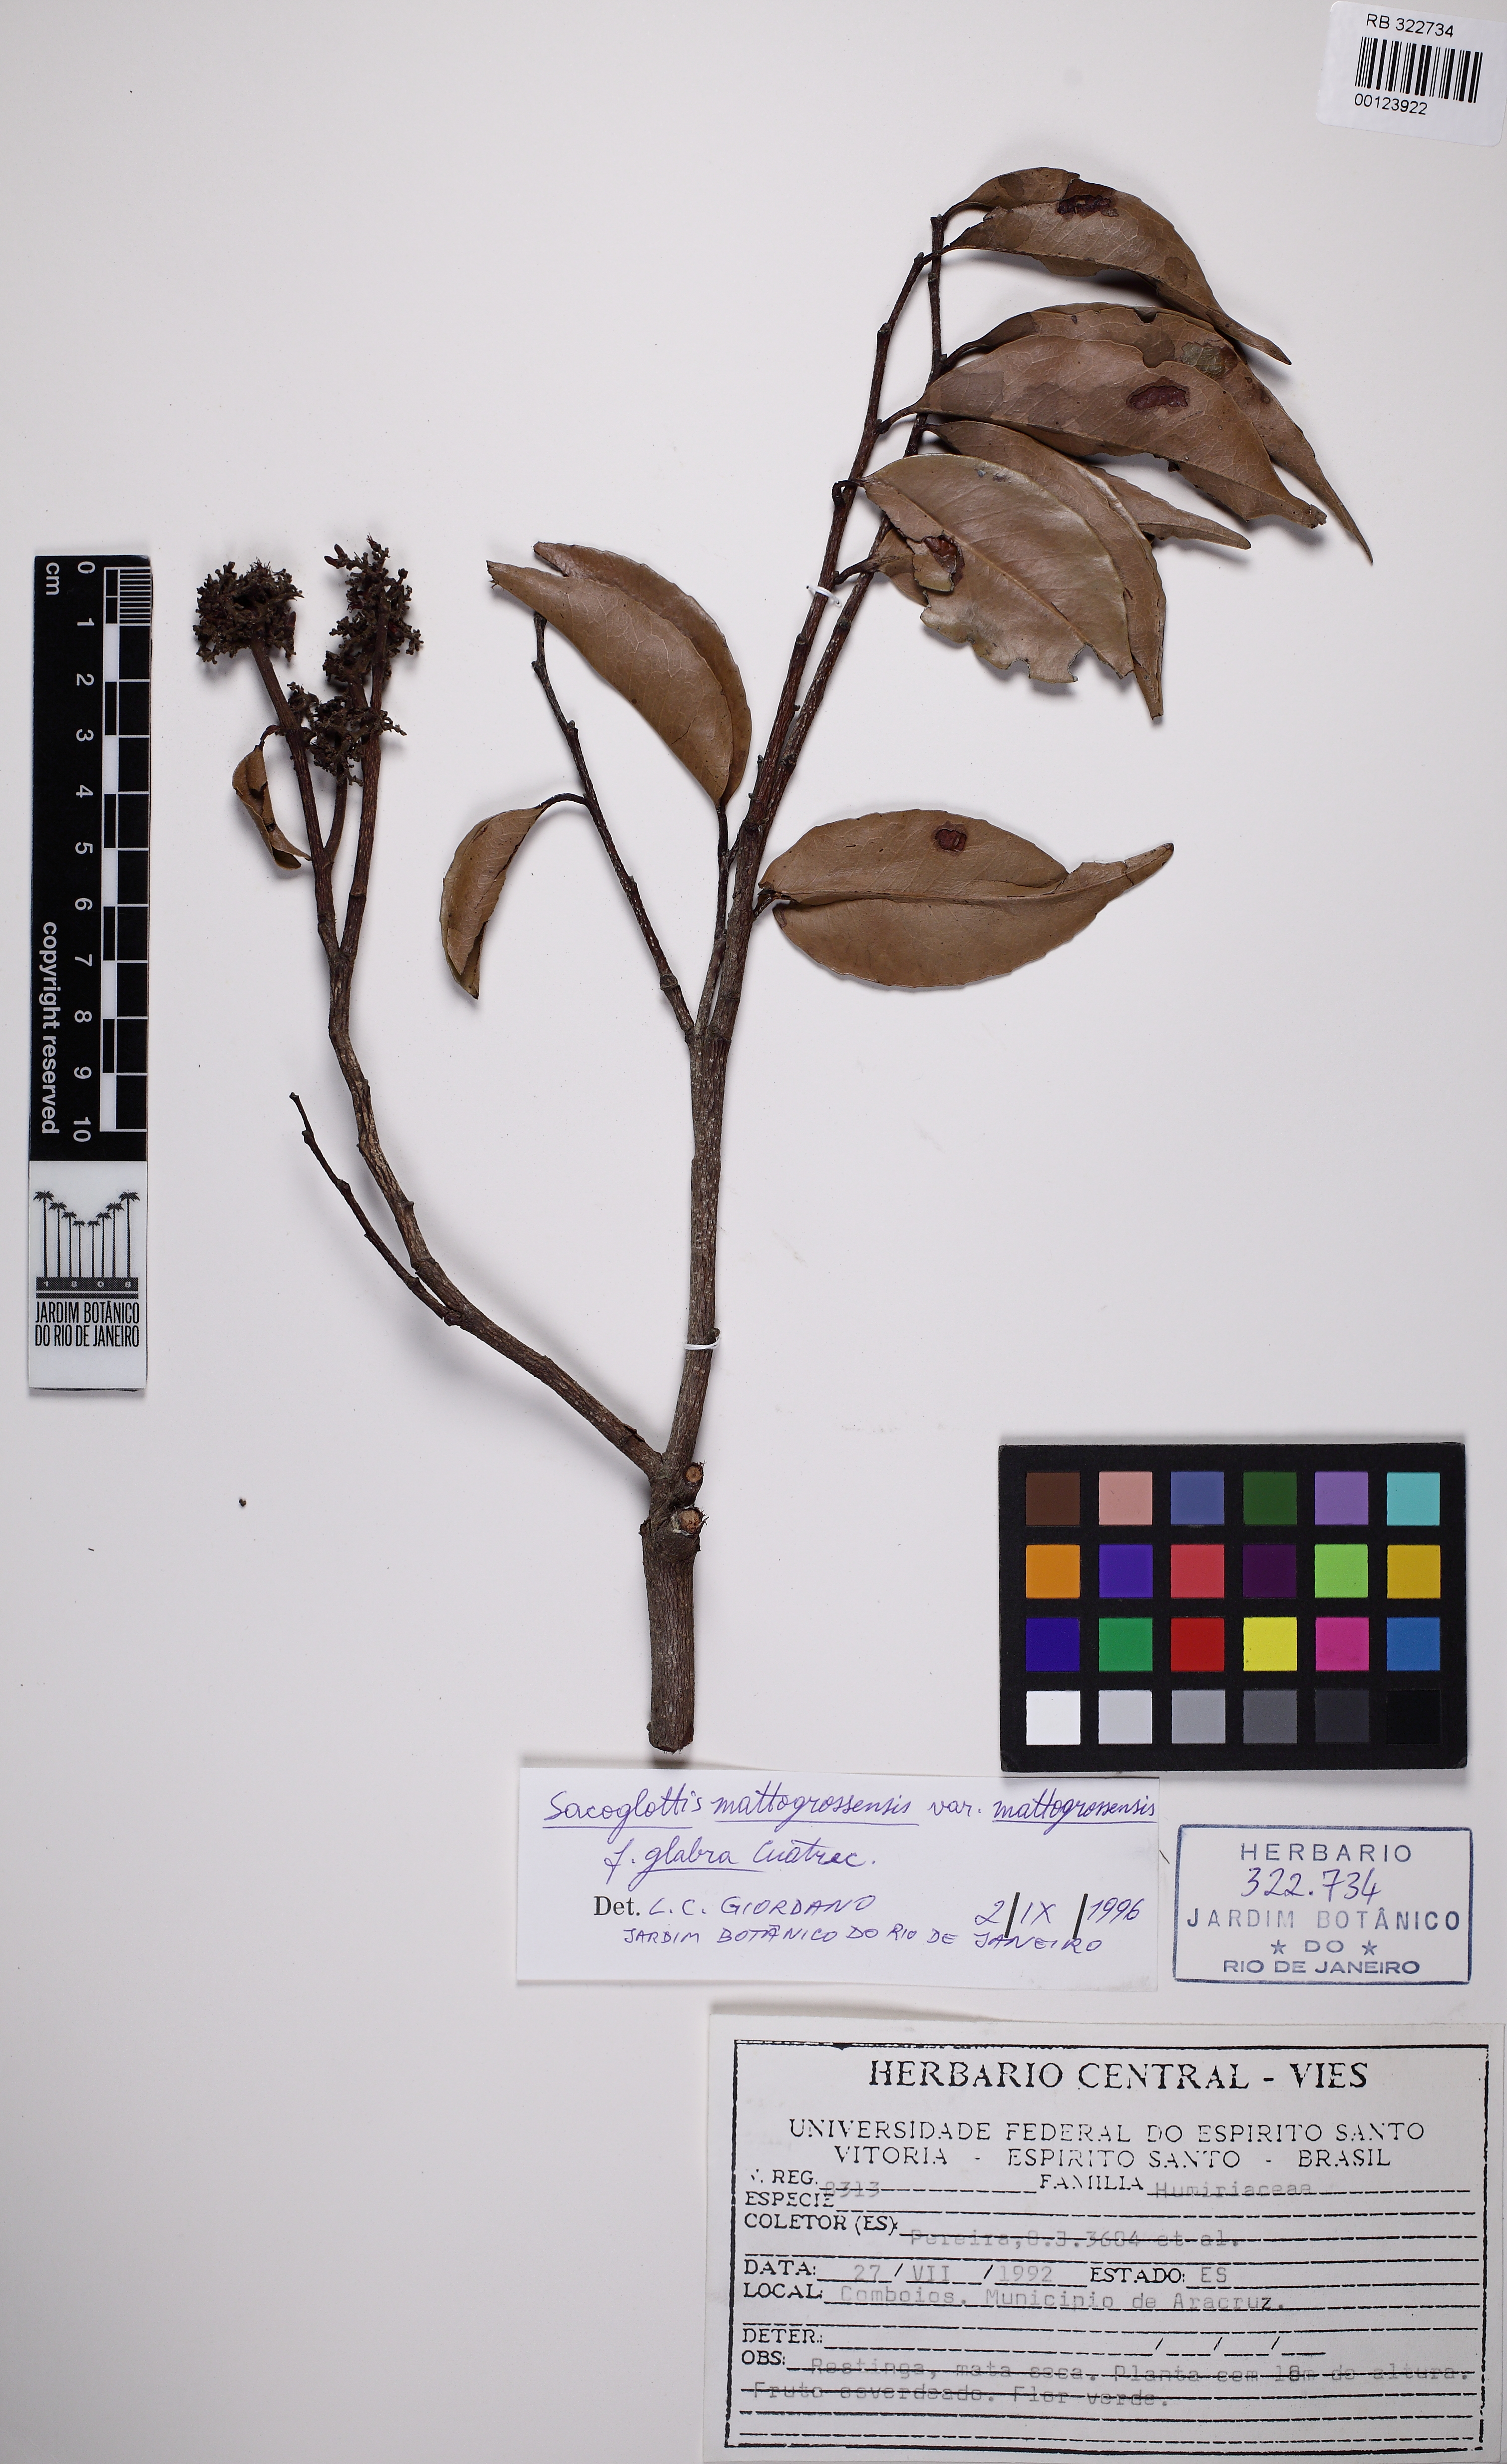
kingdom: Plantae
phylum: Tracheophyta
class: Magnoliopsida
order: Malpighiales
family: Humiriaceae
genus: Sacoglottis
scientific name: Sacoglottis mattogrossensis
